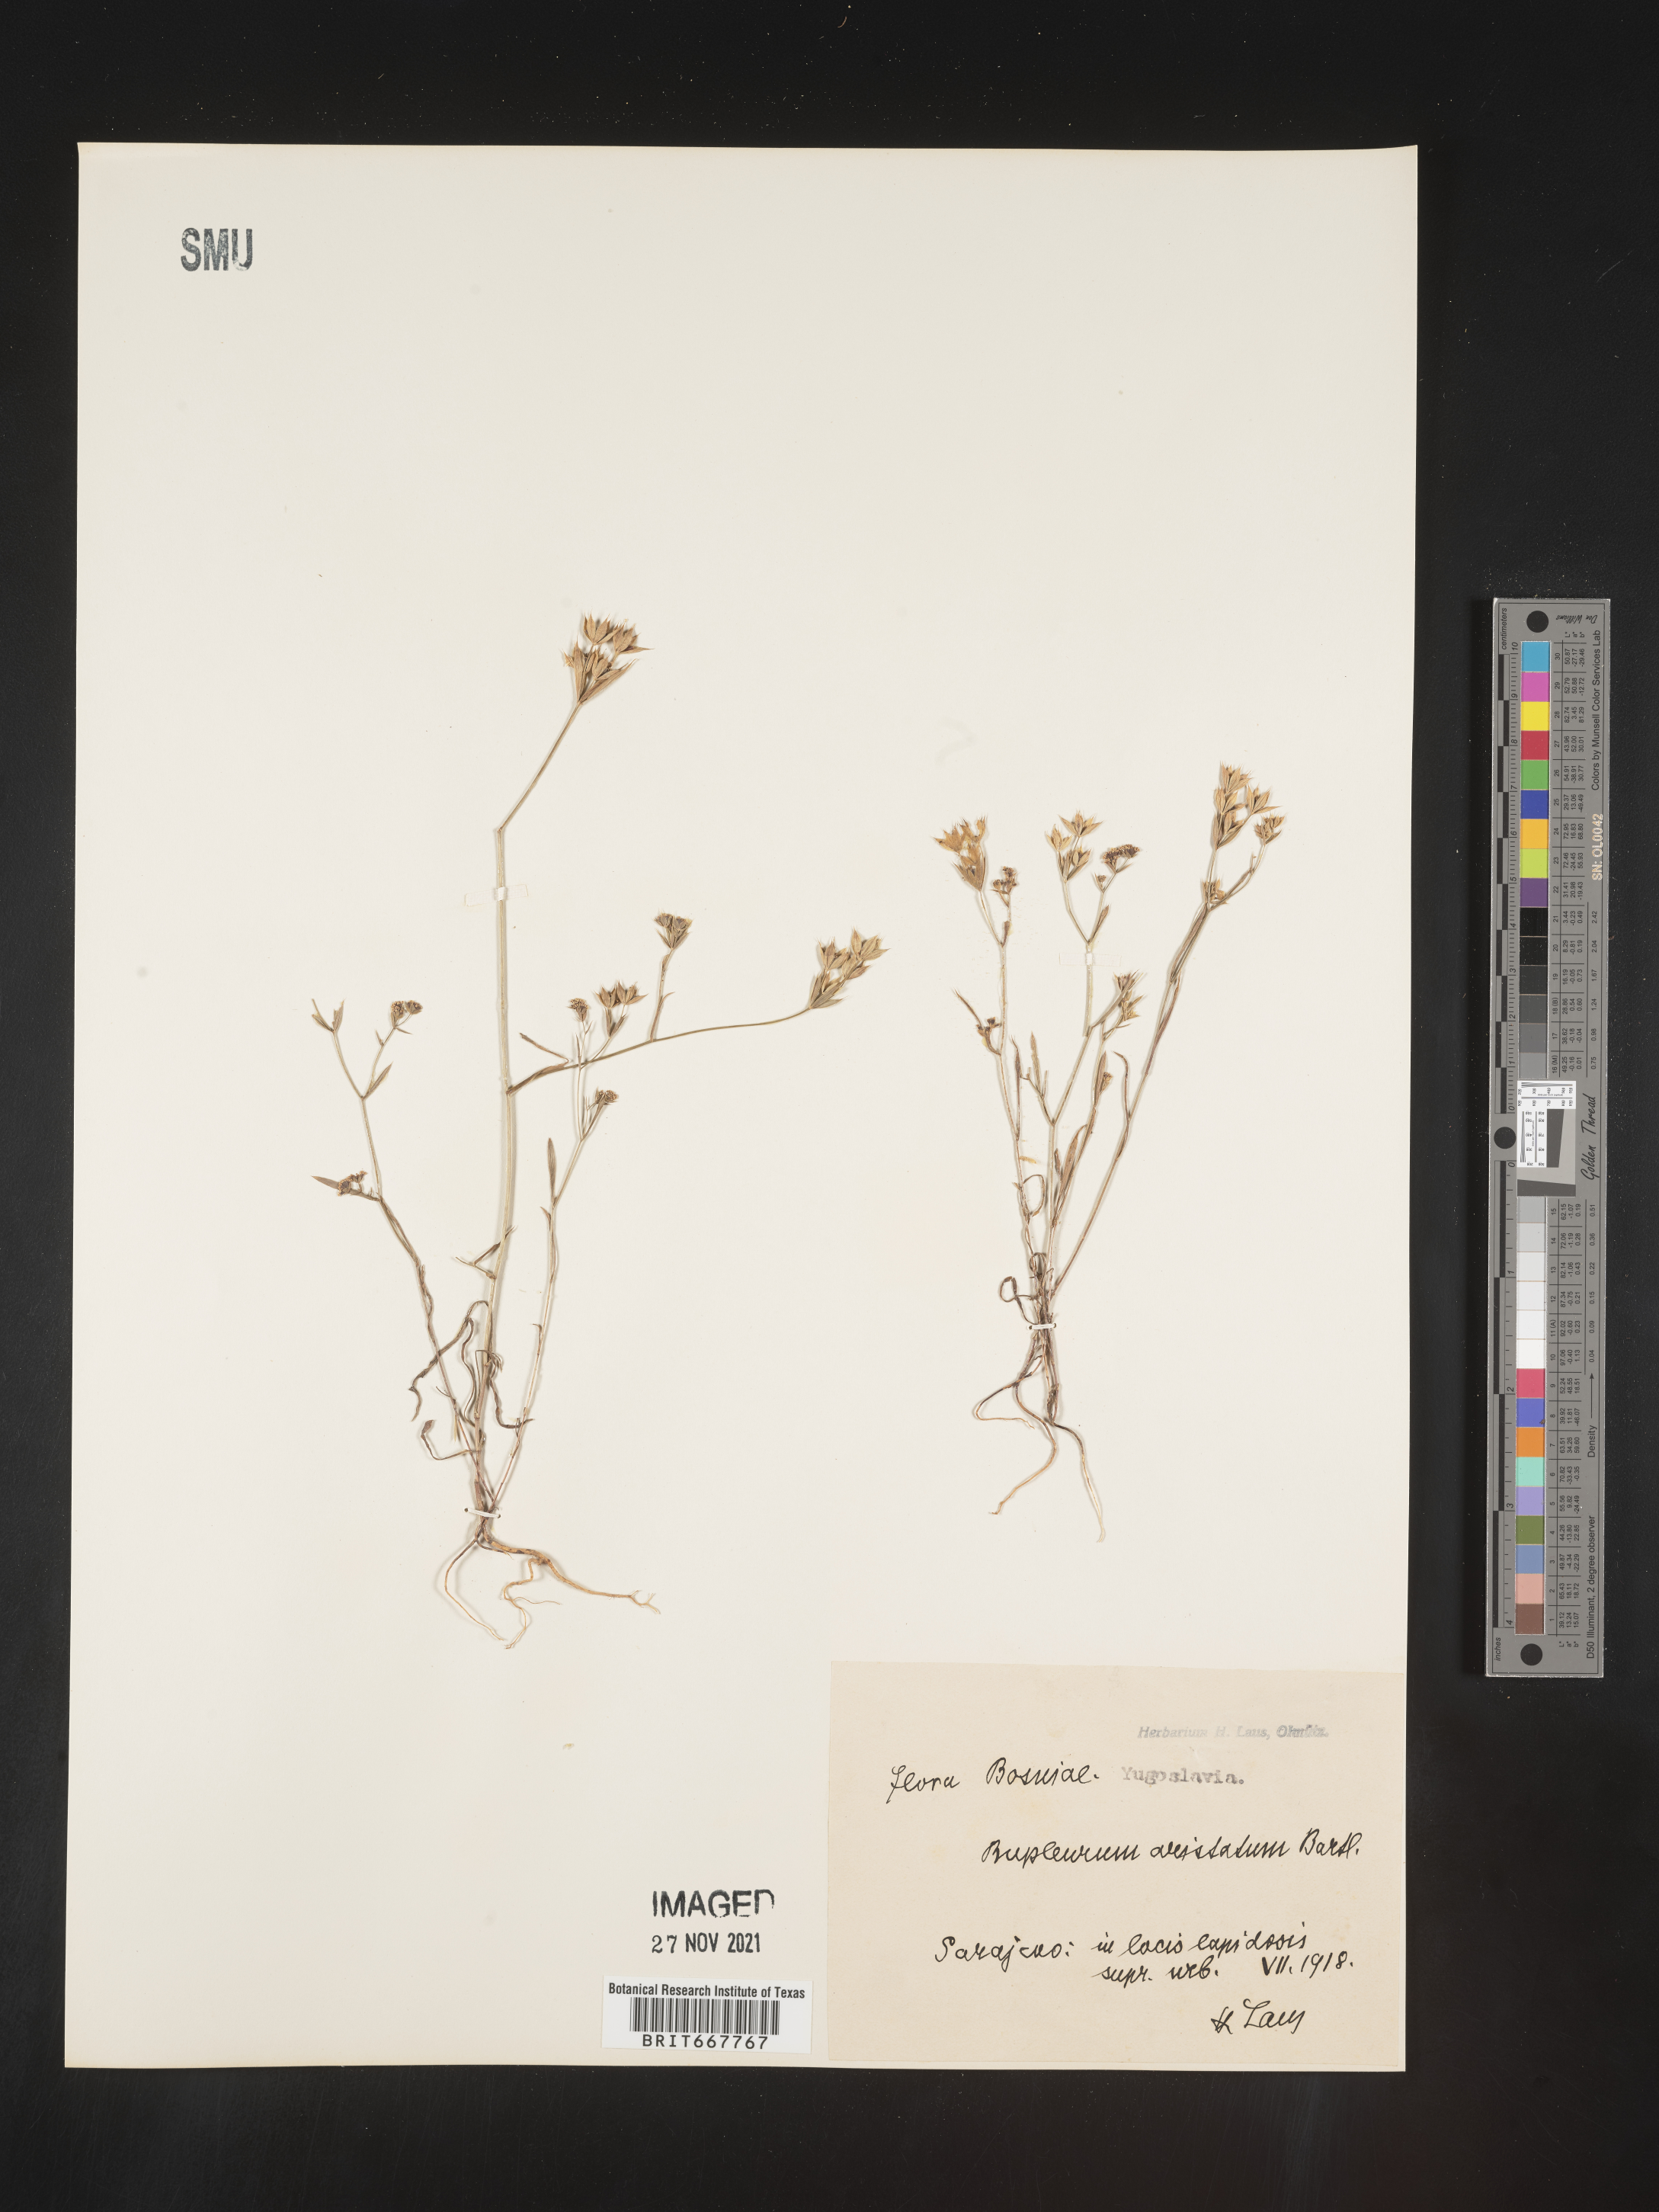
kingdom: Plantae
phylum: Tracheophyta
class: Magnoliopsida
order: Apiales
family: Apiaceae
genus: Bupleurum
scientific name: Bupleurum
